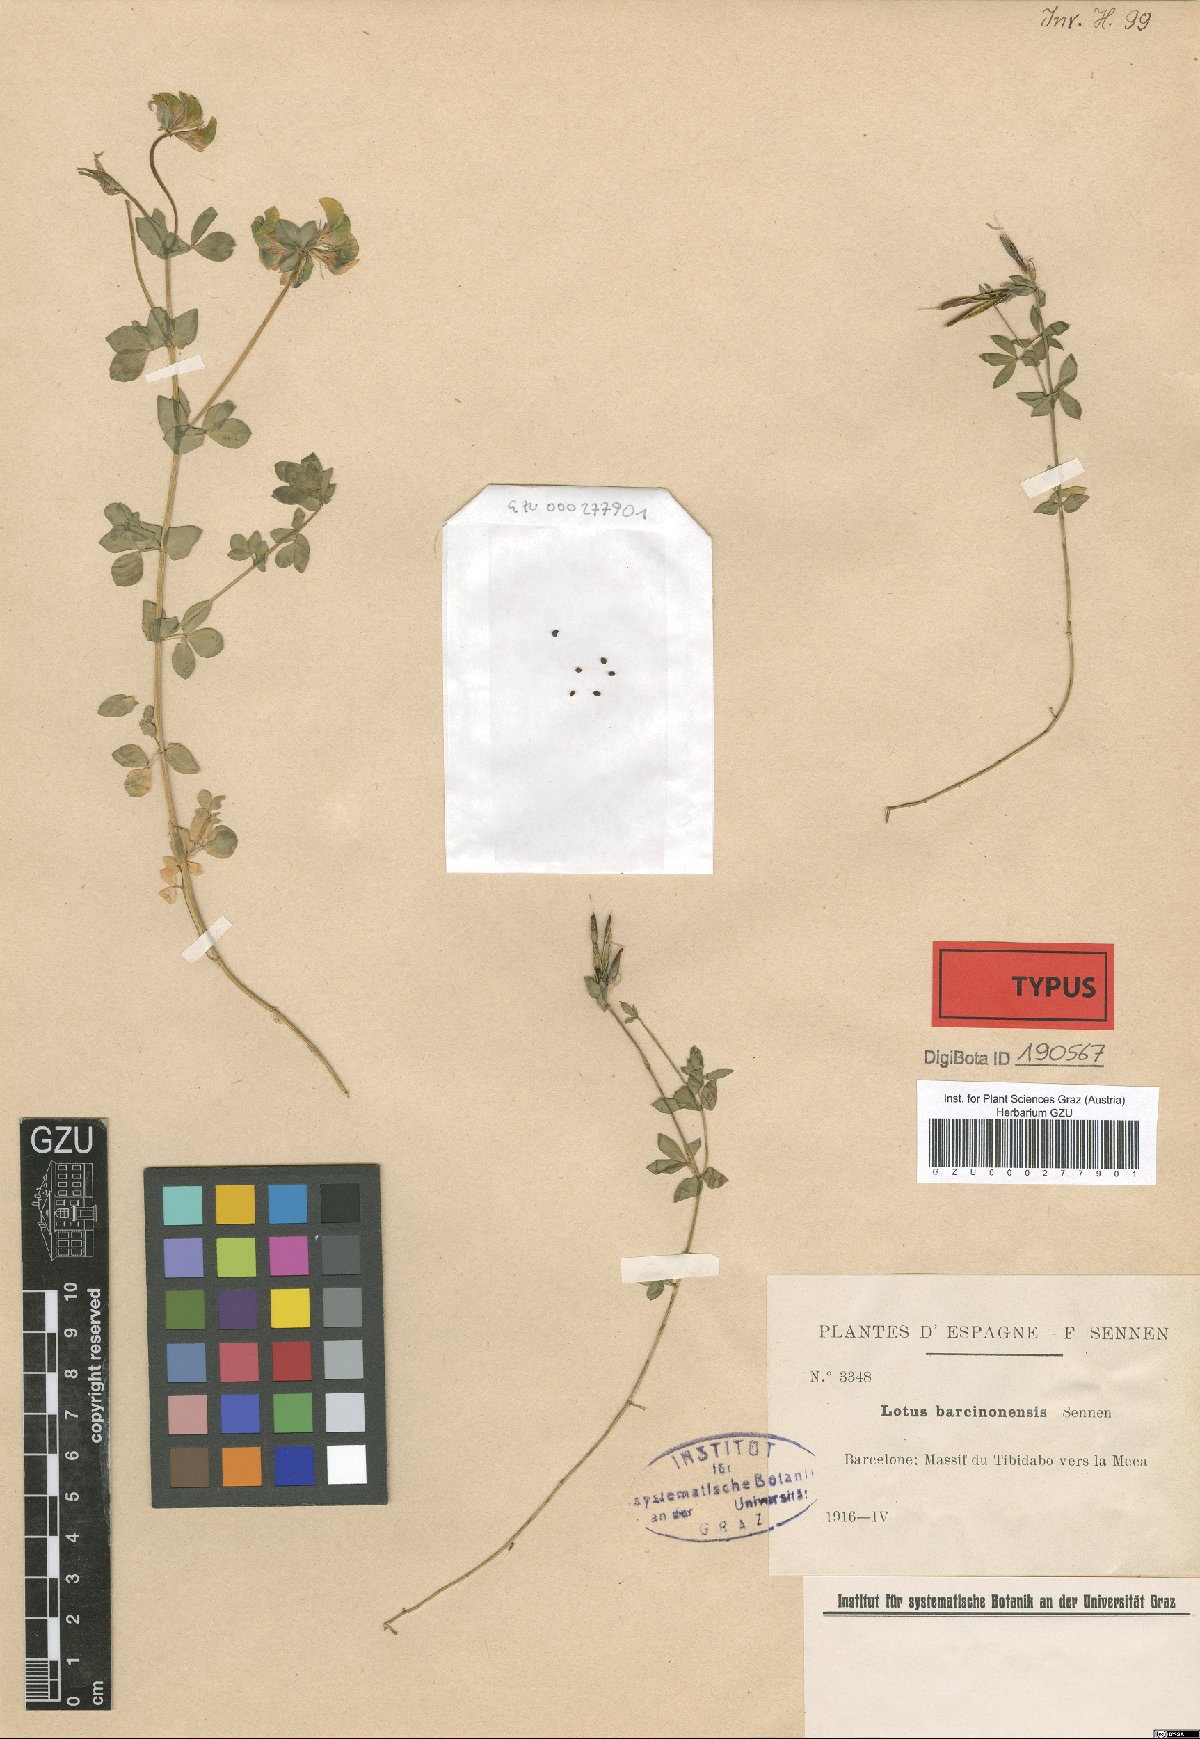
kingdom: Plantae
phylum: Tracheophyta
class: Magnoliopsida
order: Fabales
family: Fabaceae
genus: Lotus
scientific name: Lotus corniculatus
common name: Common bird's-foot-trefoil
